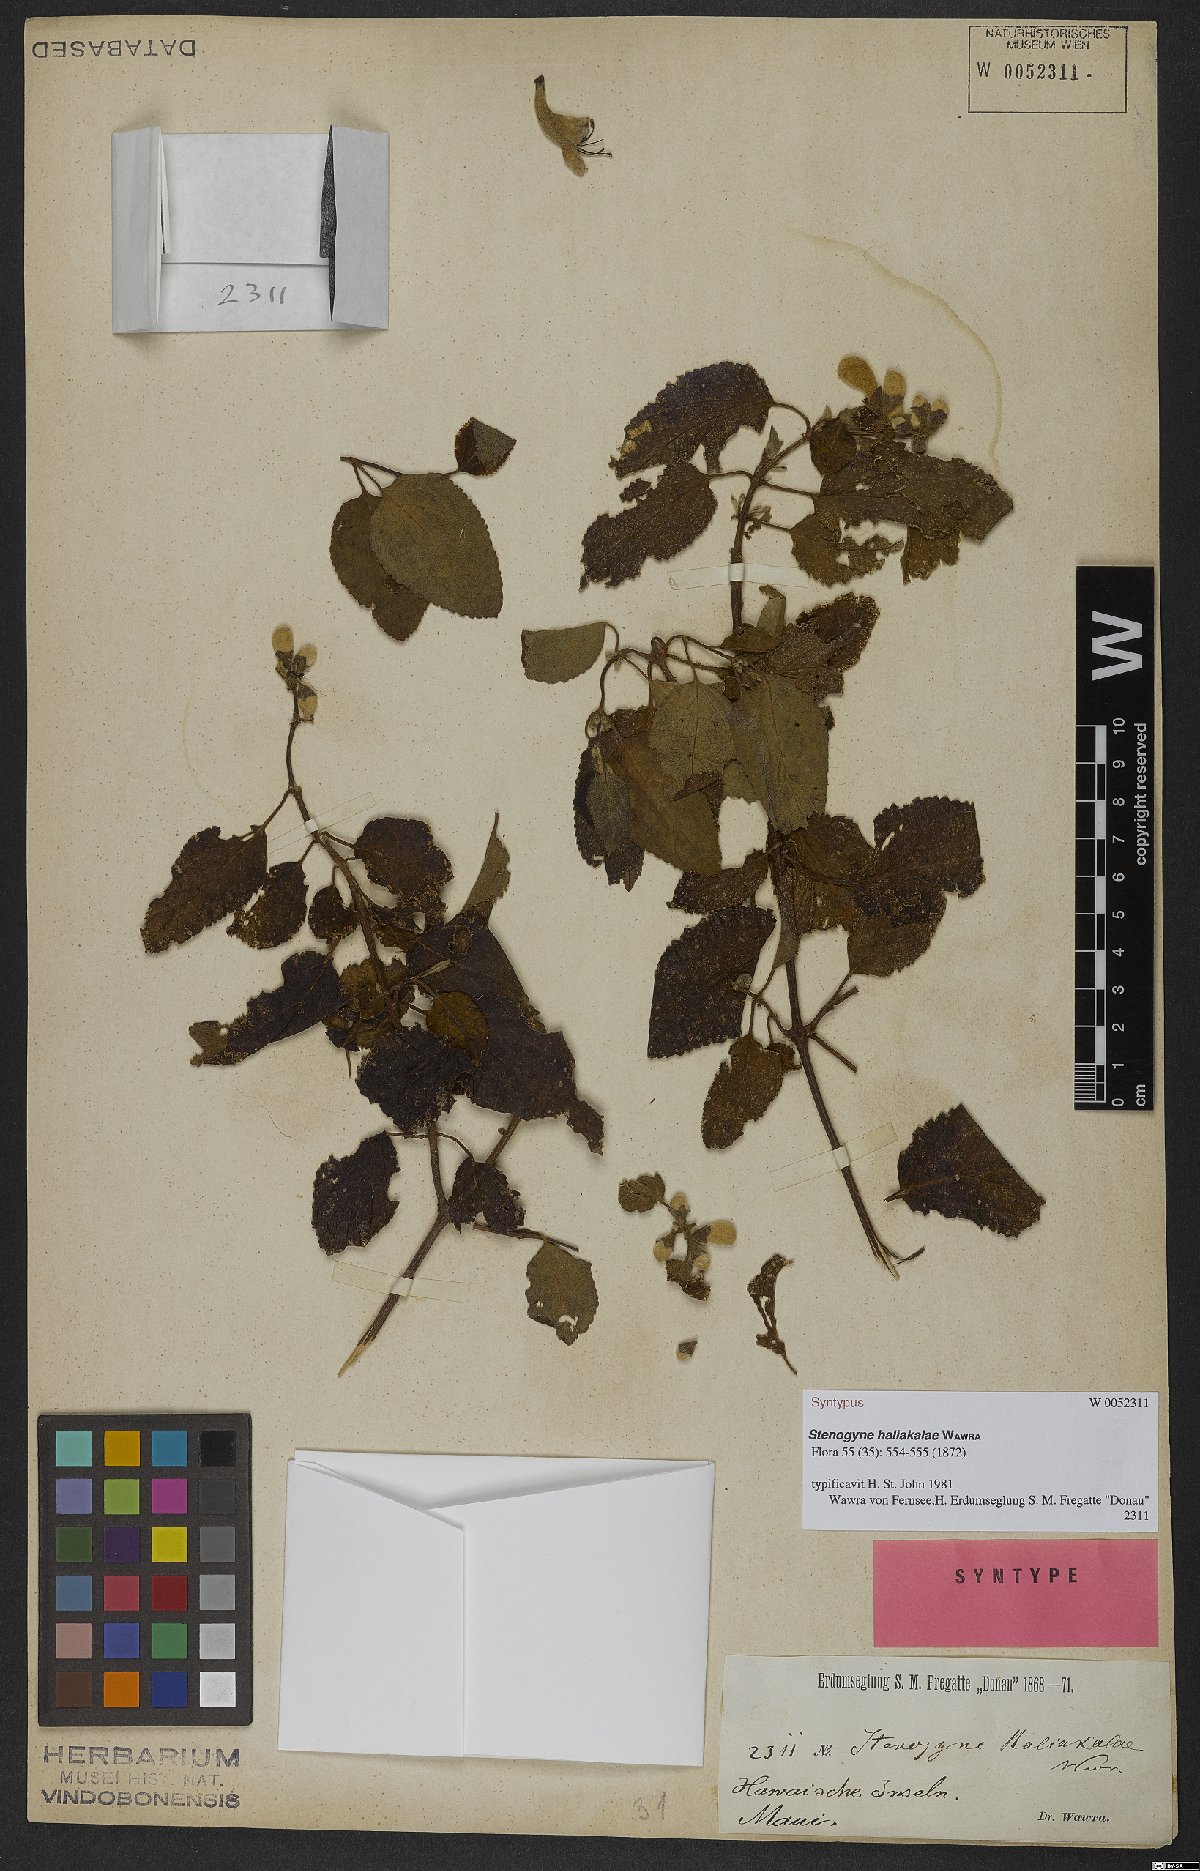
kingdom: Plantae
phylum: Tracheophyta
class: Magnoliopsida
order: Lamiales
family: Lamiaceae
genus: Stenogyne
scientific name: Stenogyne haliakalae
